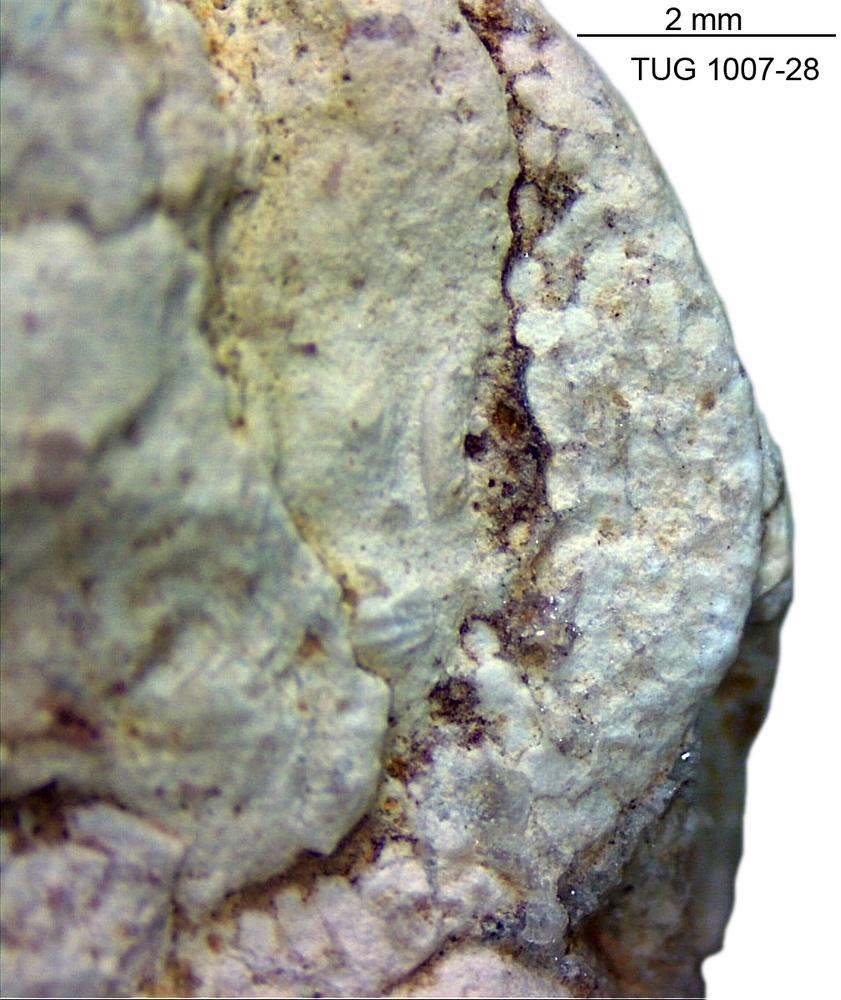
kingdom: Animalia
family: Coprulidae
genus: Coprulus
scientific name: Coprulus
